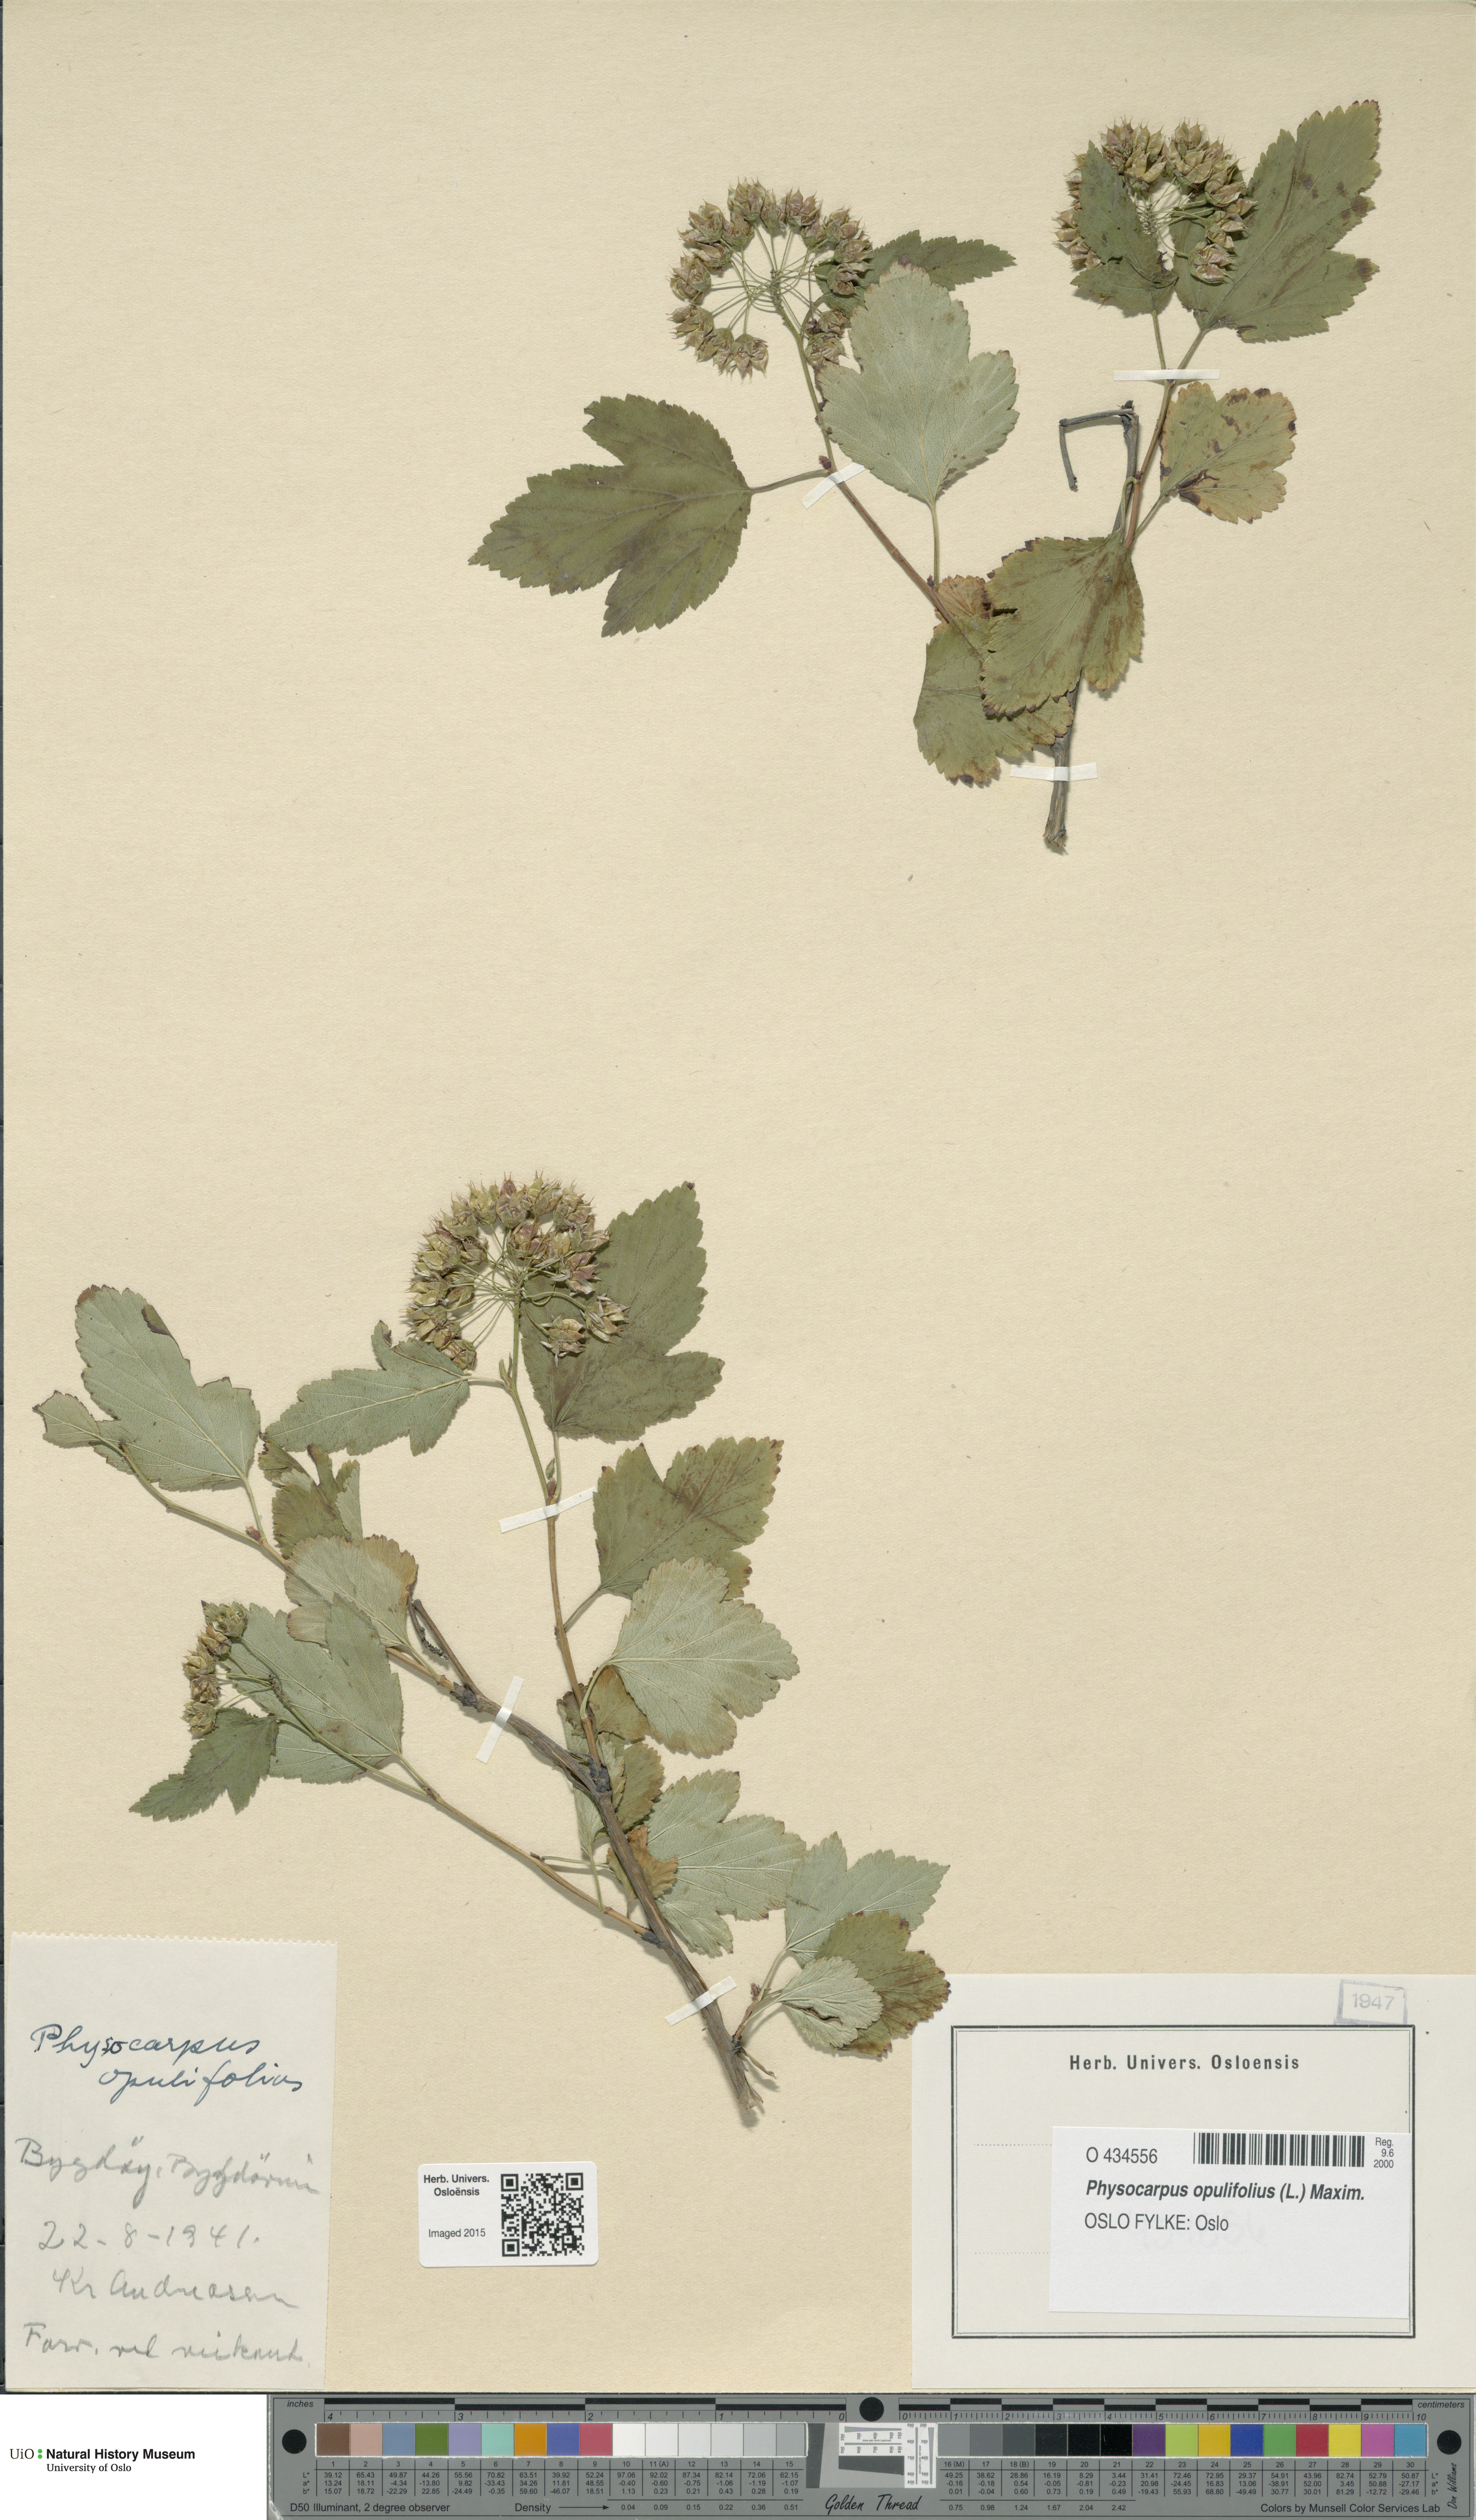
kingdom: Plantae
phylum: Tracheophyta
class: Magnoliopsida
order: Rosales
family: Rosaceae
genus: Physocarpus
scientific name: Physocarpus opulifolius
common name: Ninebark
